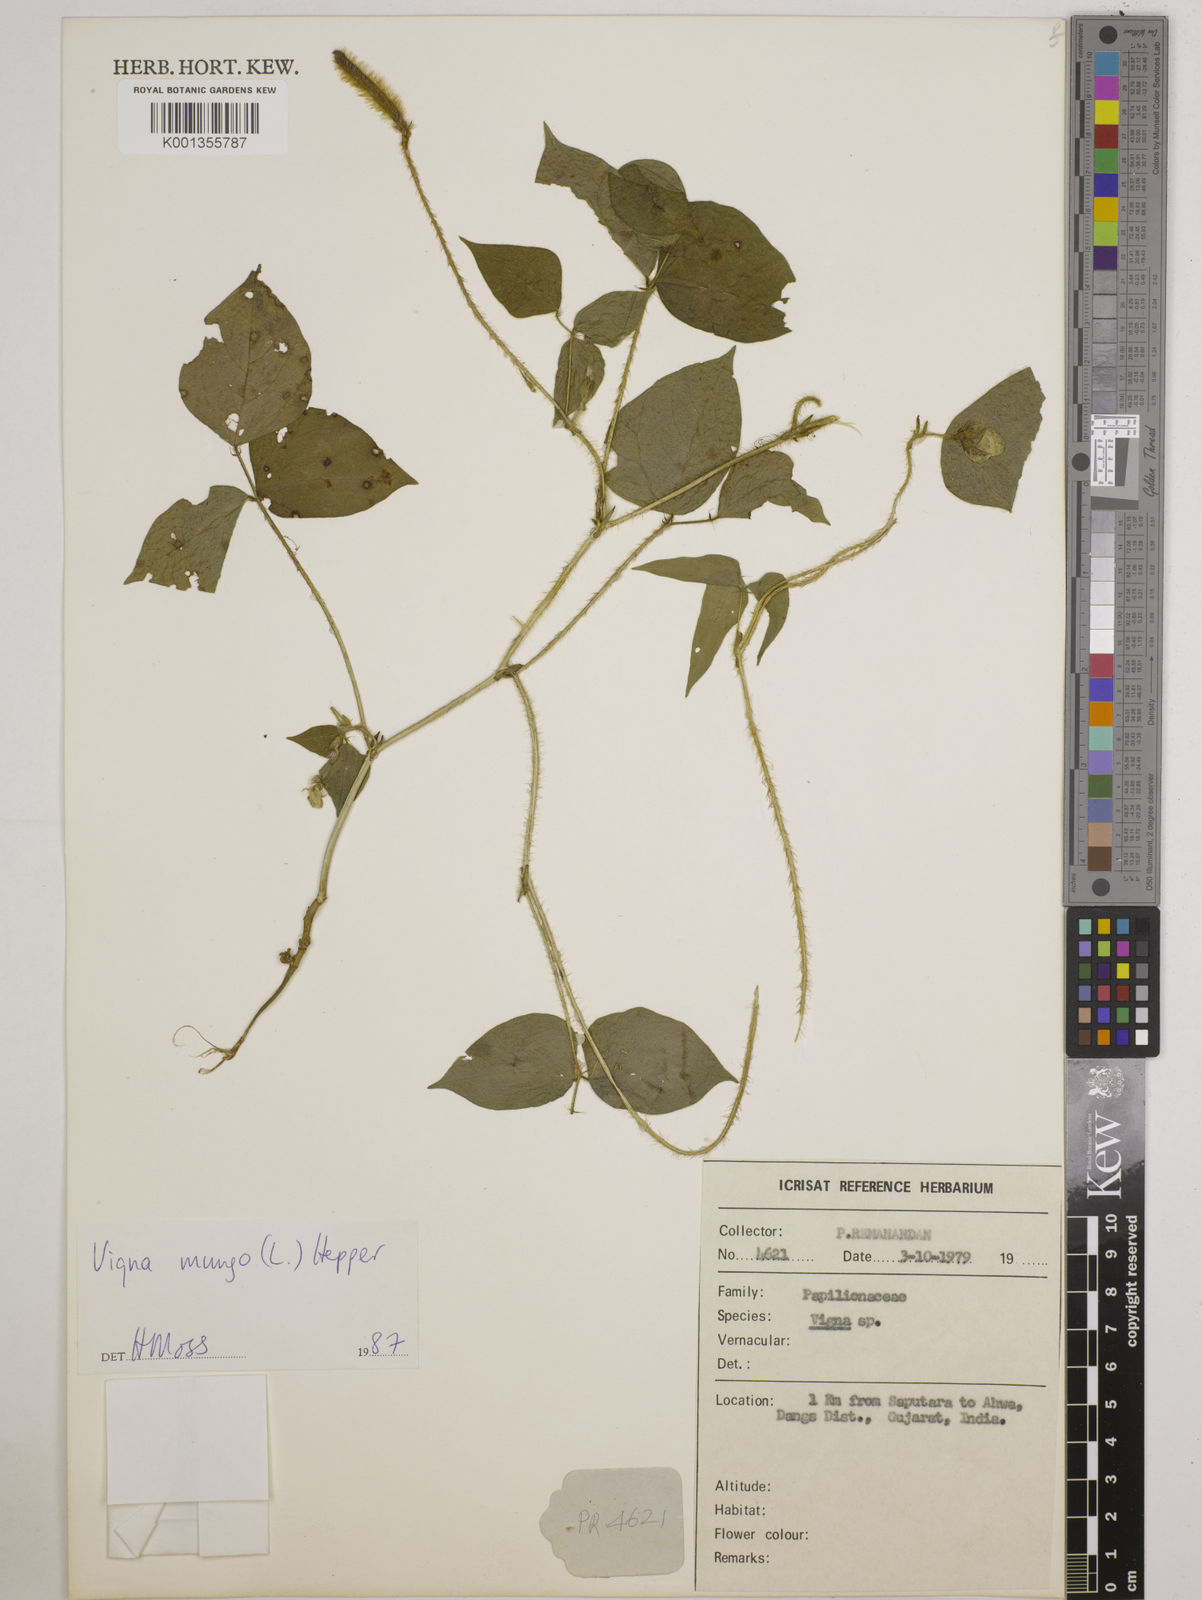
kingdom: Plantae
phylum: Tracheophyta
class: Magnoliopsida
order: Fabales
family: Fabaceae
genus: Vigna
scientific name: Vigna mungo
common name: Black gram
